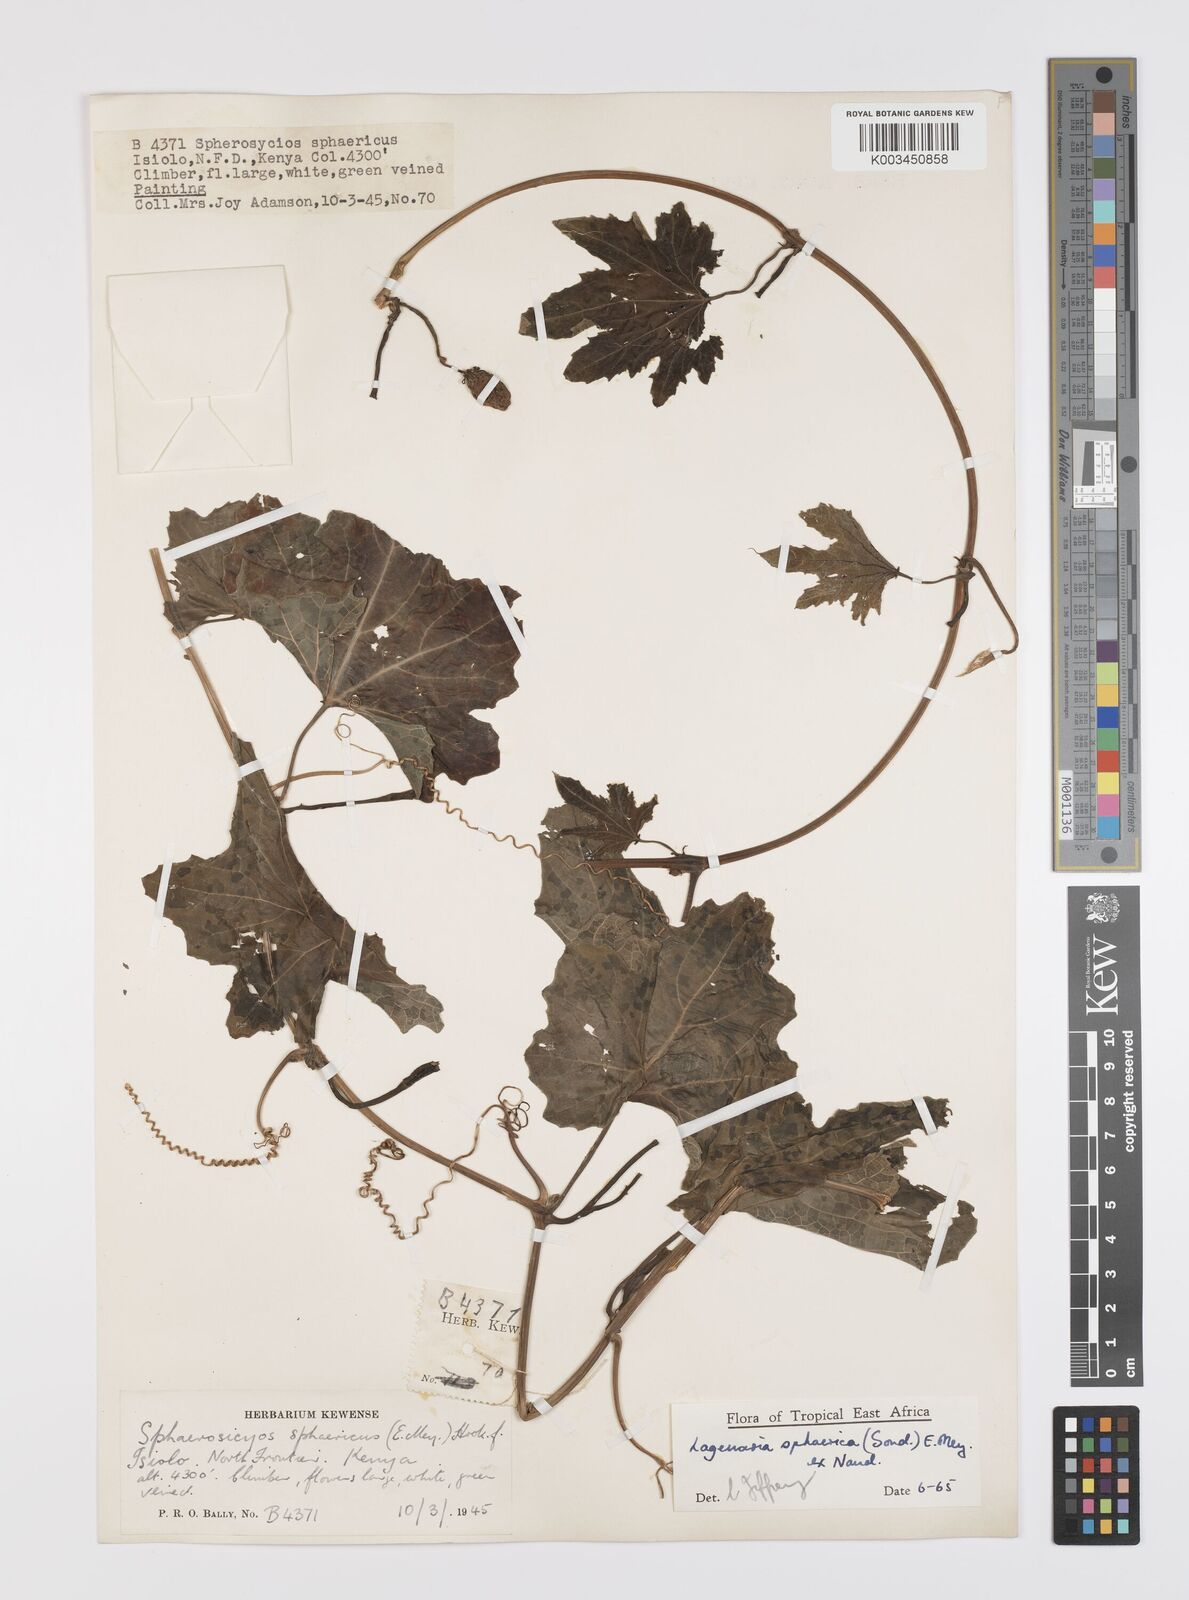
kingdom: Plantae
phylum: Tracheophyta
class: Magnoliopsida
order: Cucurbitales
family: Cucurbitaceae
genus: Lagenaria
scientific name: Lagenaria sphaerica
